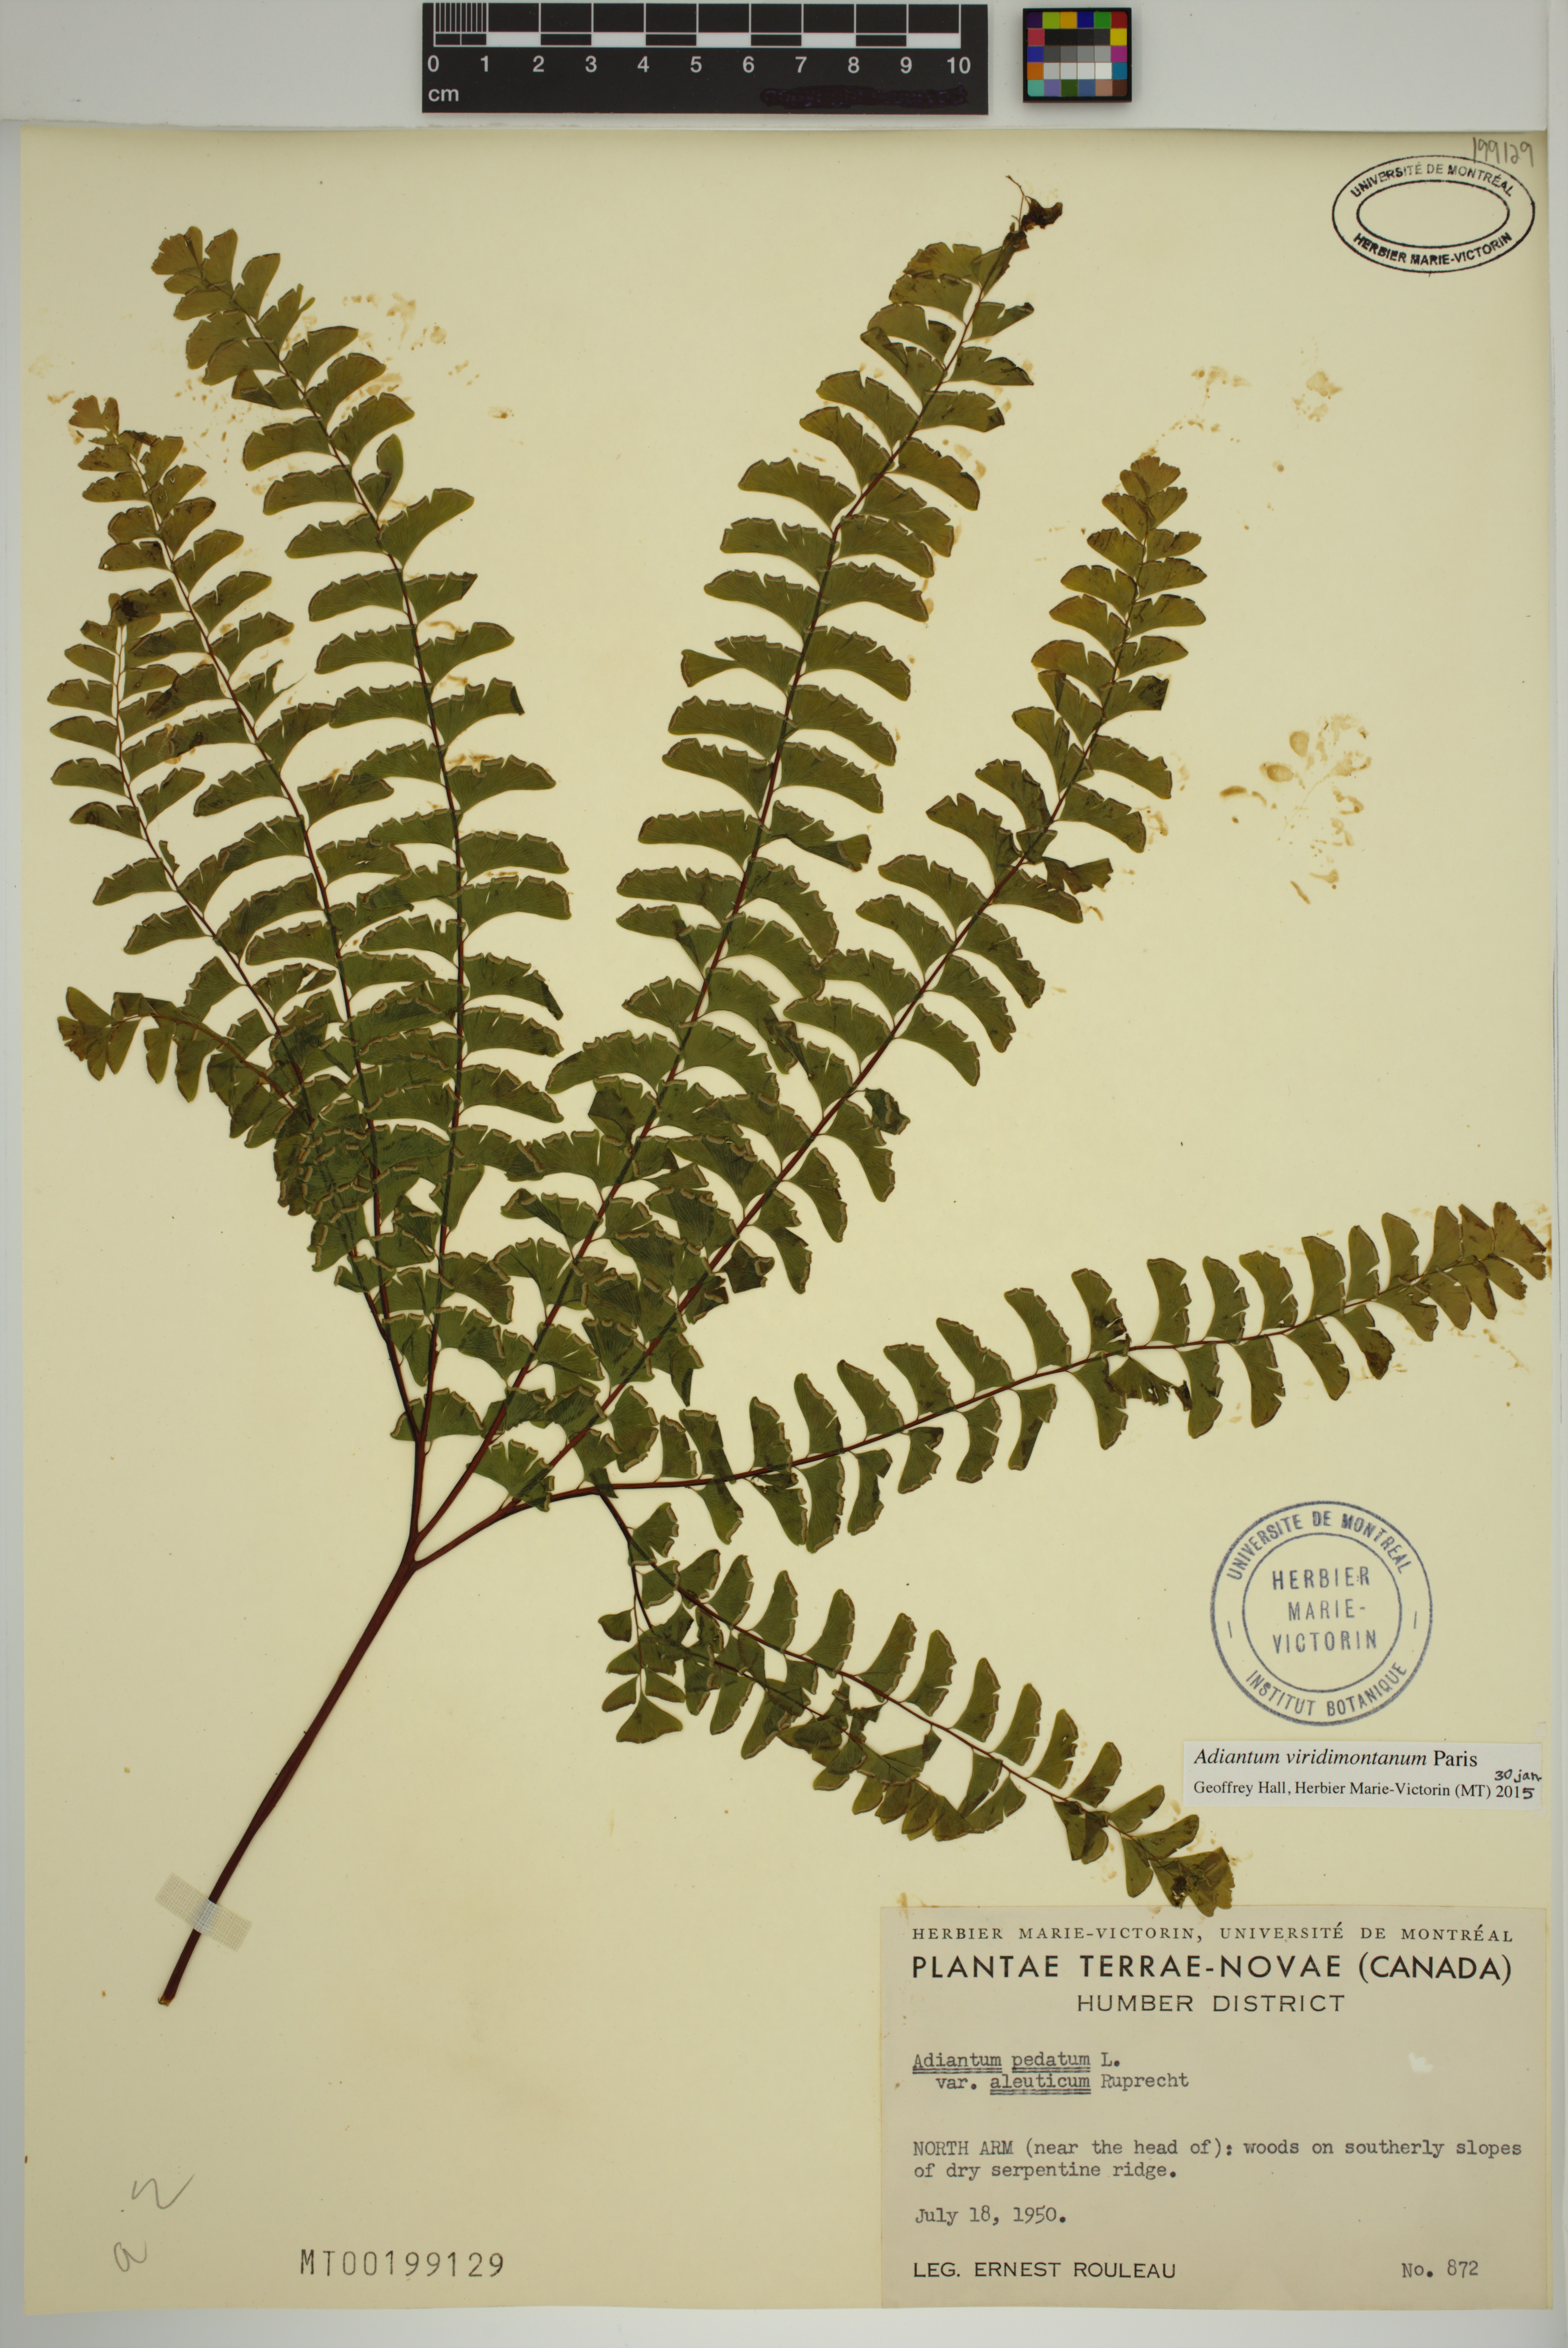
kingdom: Plantae
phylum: Tracheophyta
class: Polypodiopsida
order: Polypodiales
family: Pteridaceae
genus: Adiantum
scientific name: Adiantum viridimontanum
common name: Green mountain maidenhair
